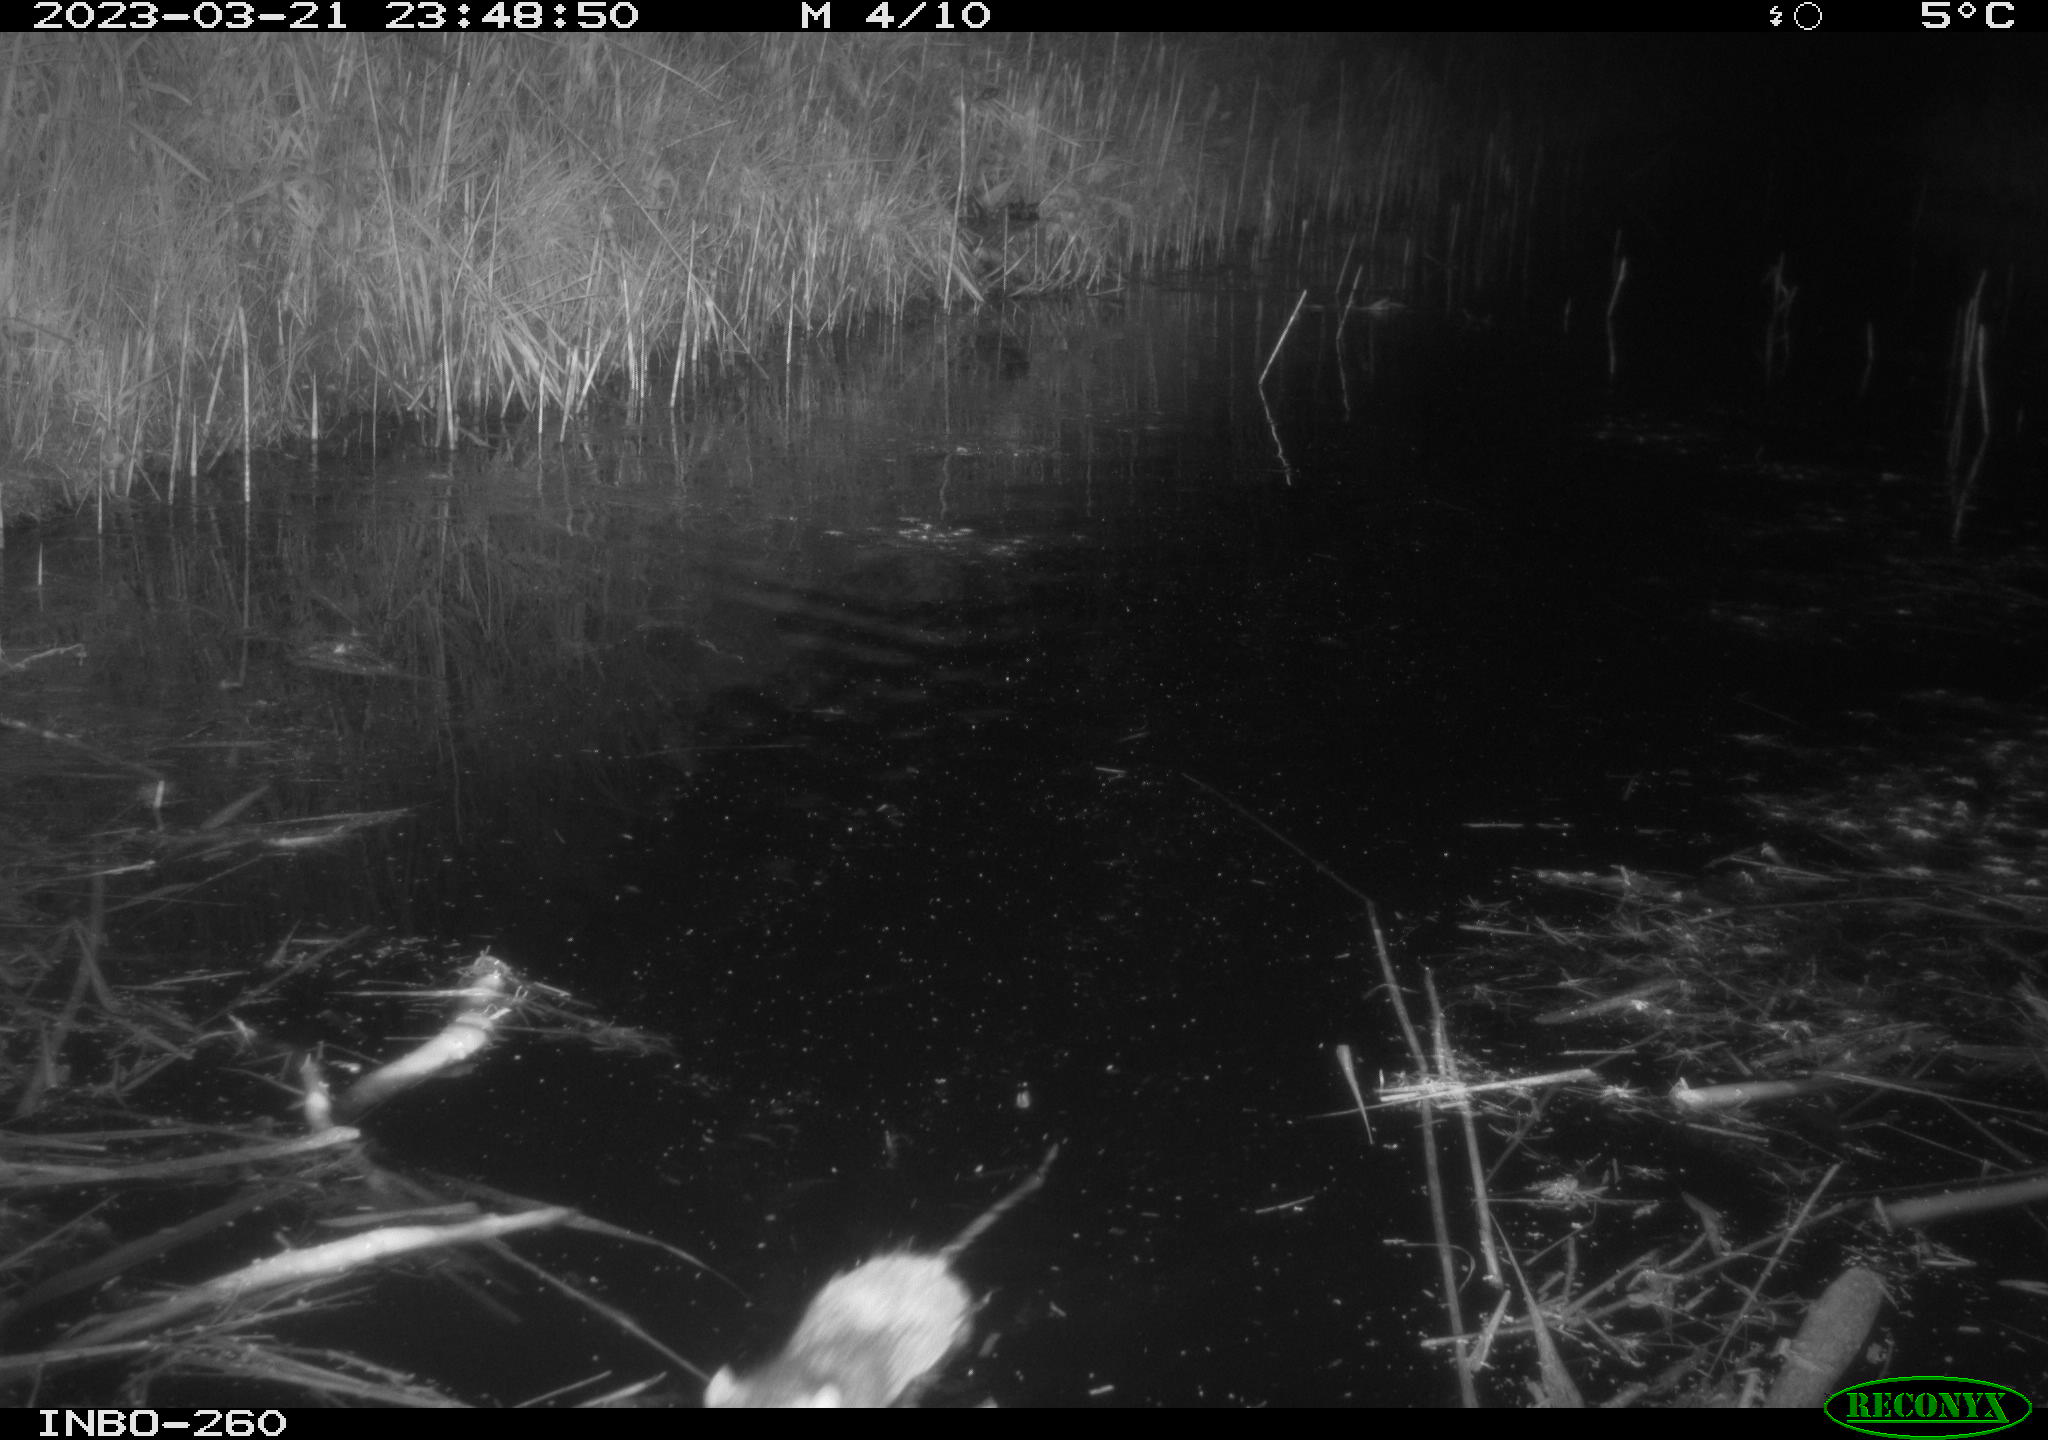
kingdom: Animalia
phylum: Chordata
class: Mammalia
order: Rodentia
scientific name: Rodentia
